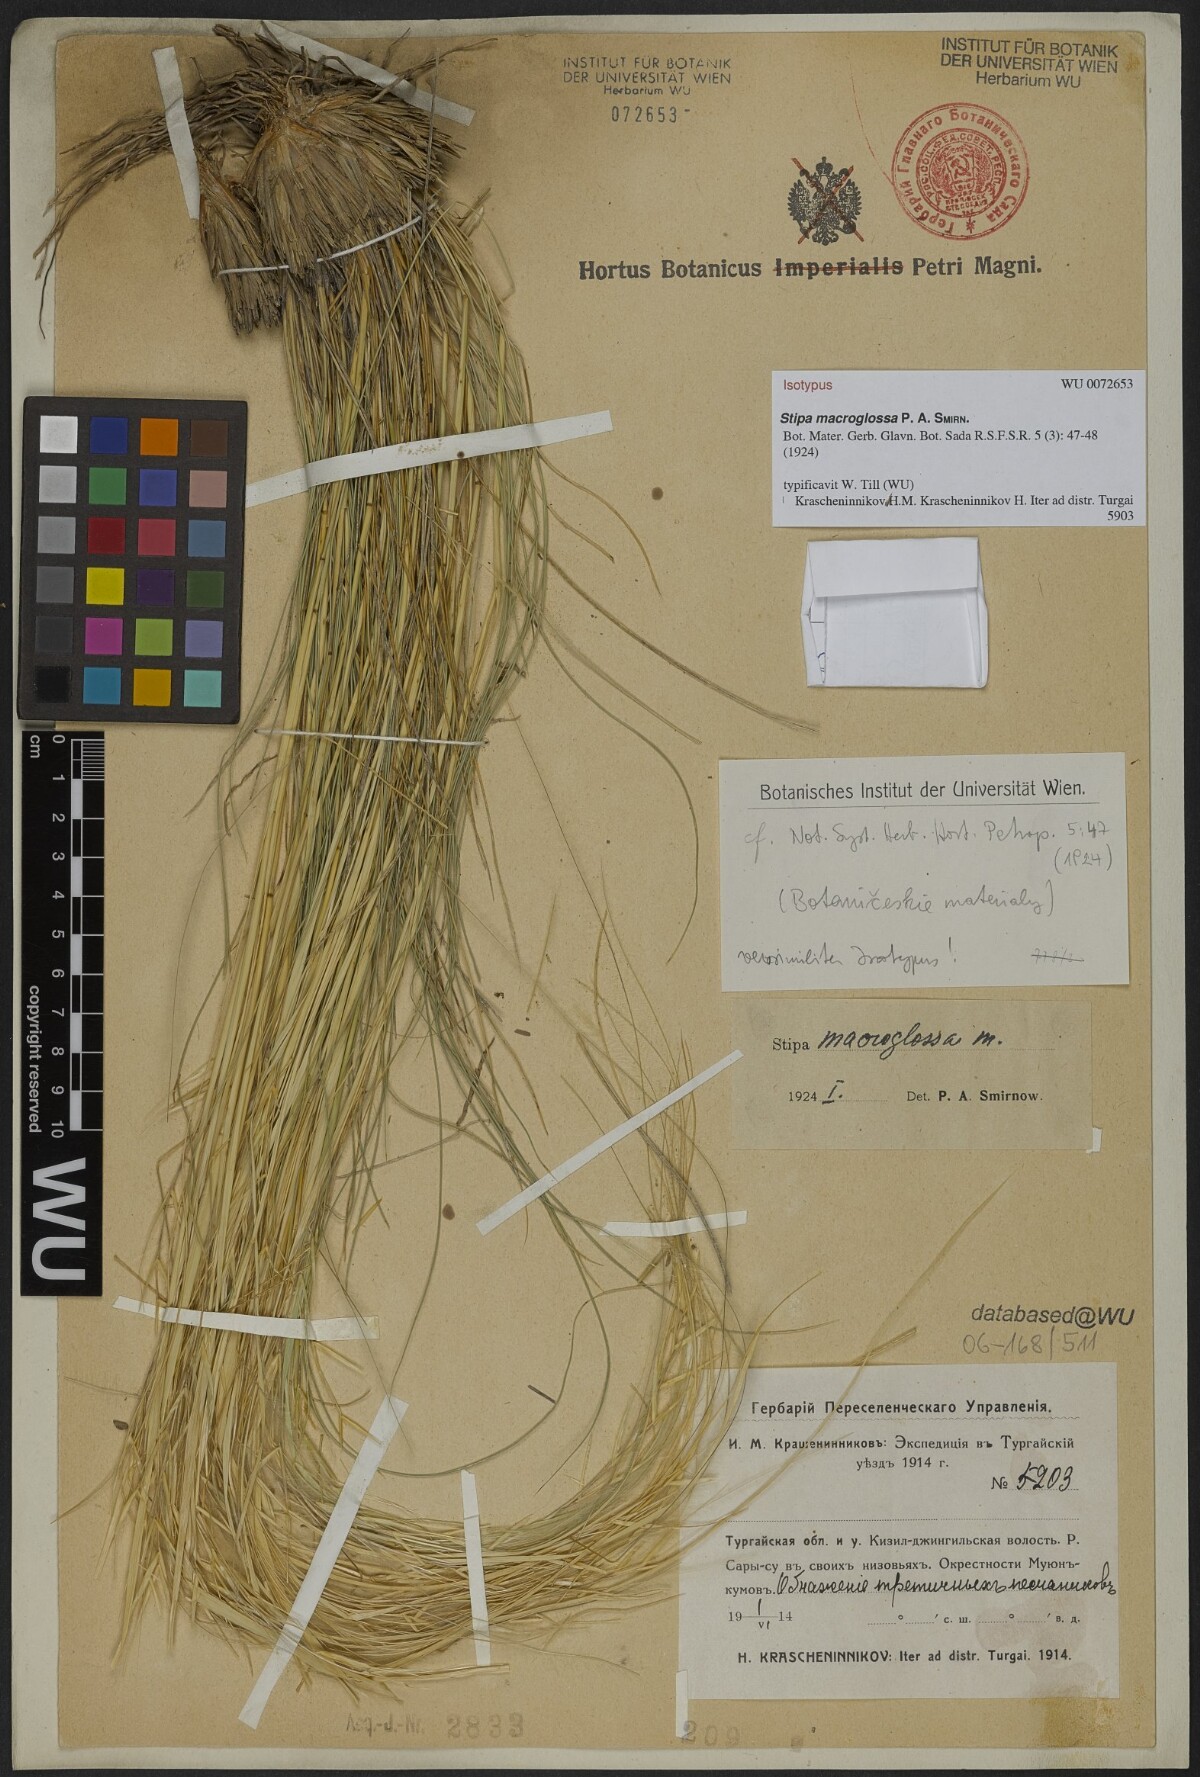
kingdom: Plantae
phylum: Tracheophyta
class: Liliopsida
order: Poales
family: Poaceae
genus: Stipa
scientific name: Stipa macroglossa
